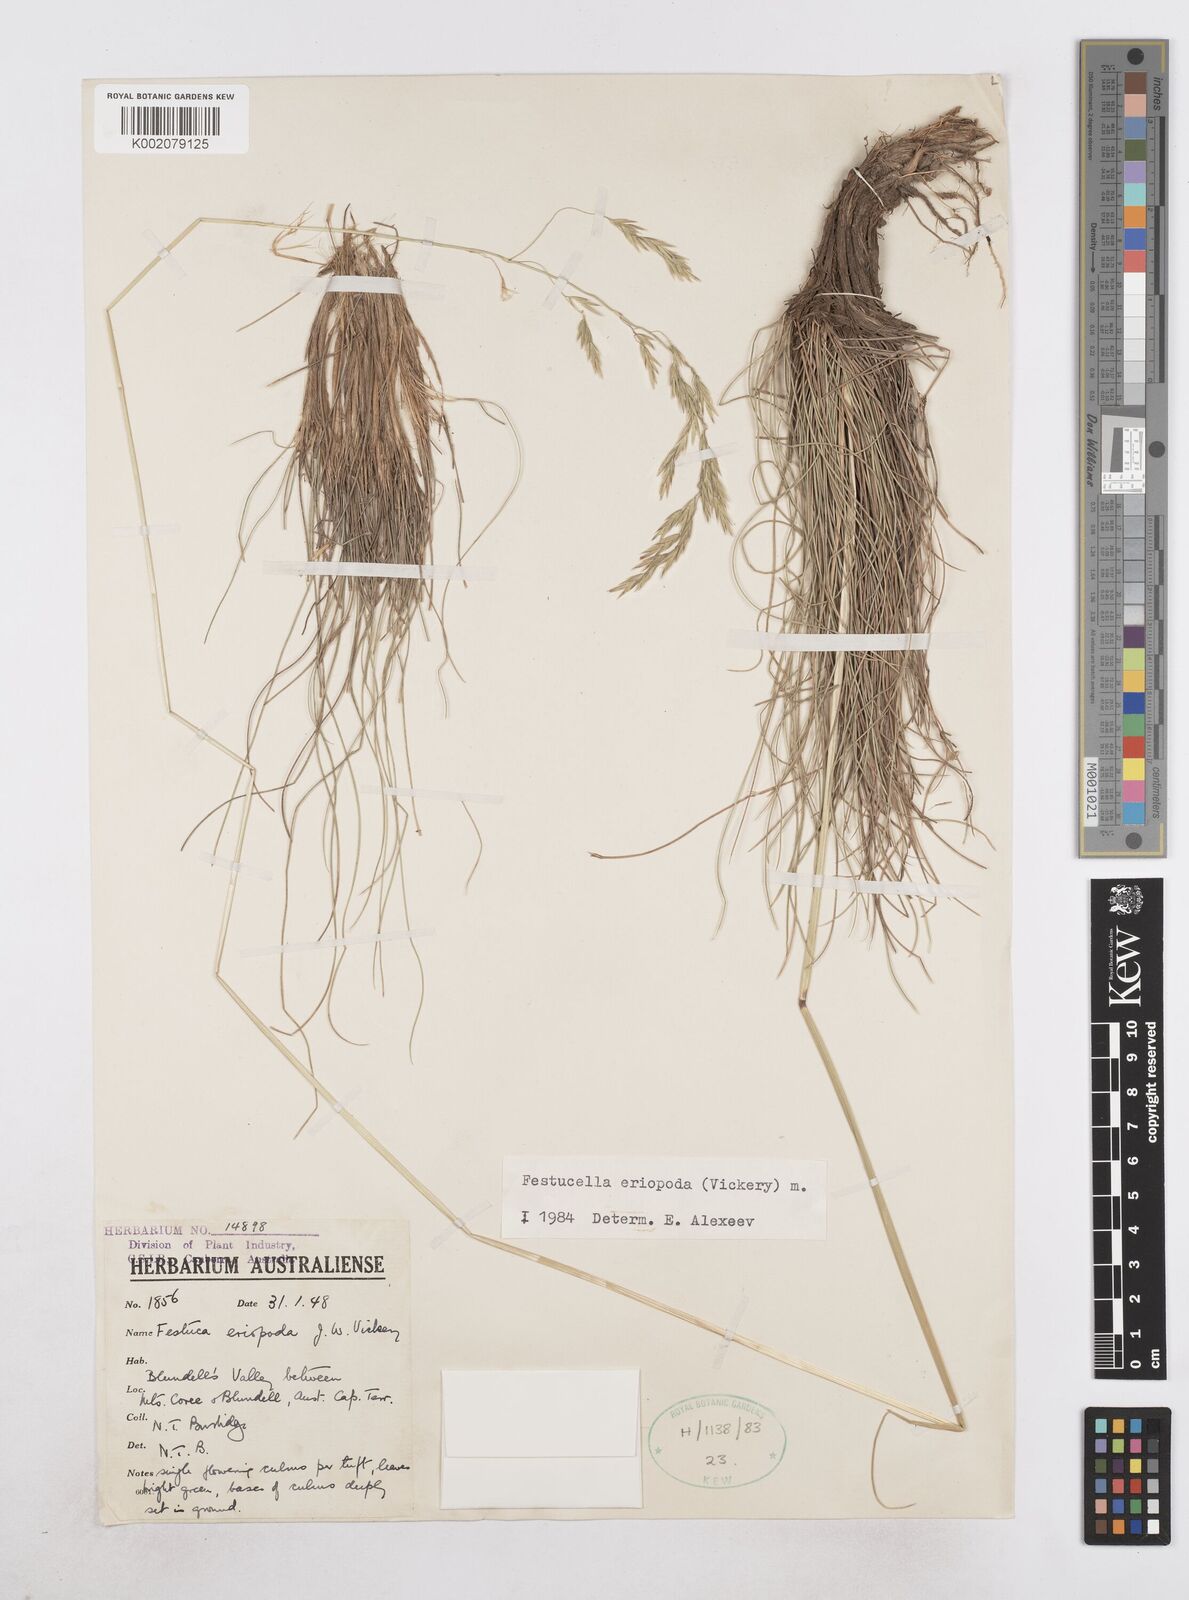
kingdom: Plantae
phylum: Tracheophyta
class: Liliopsida
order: Poales
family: Poaceae
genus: Hookerochloa
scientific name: Hookerochloa eriopoda
